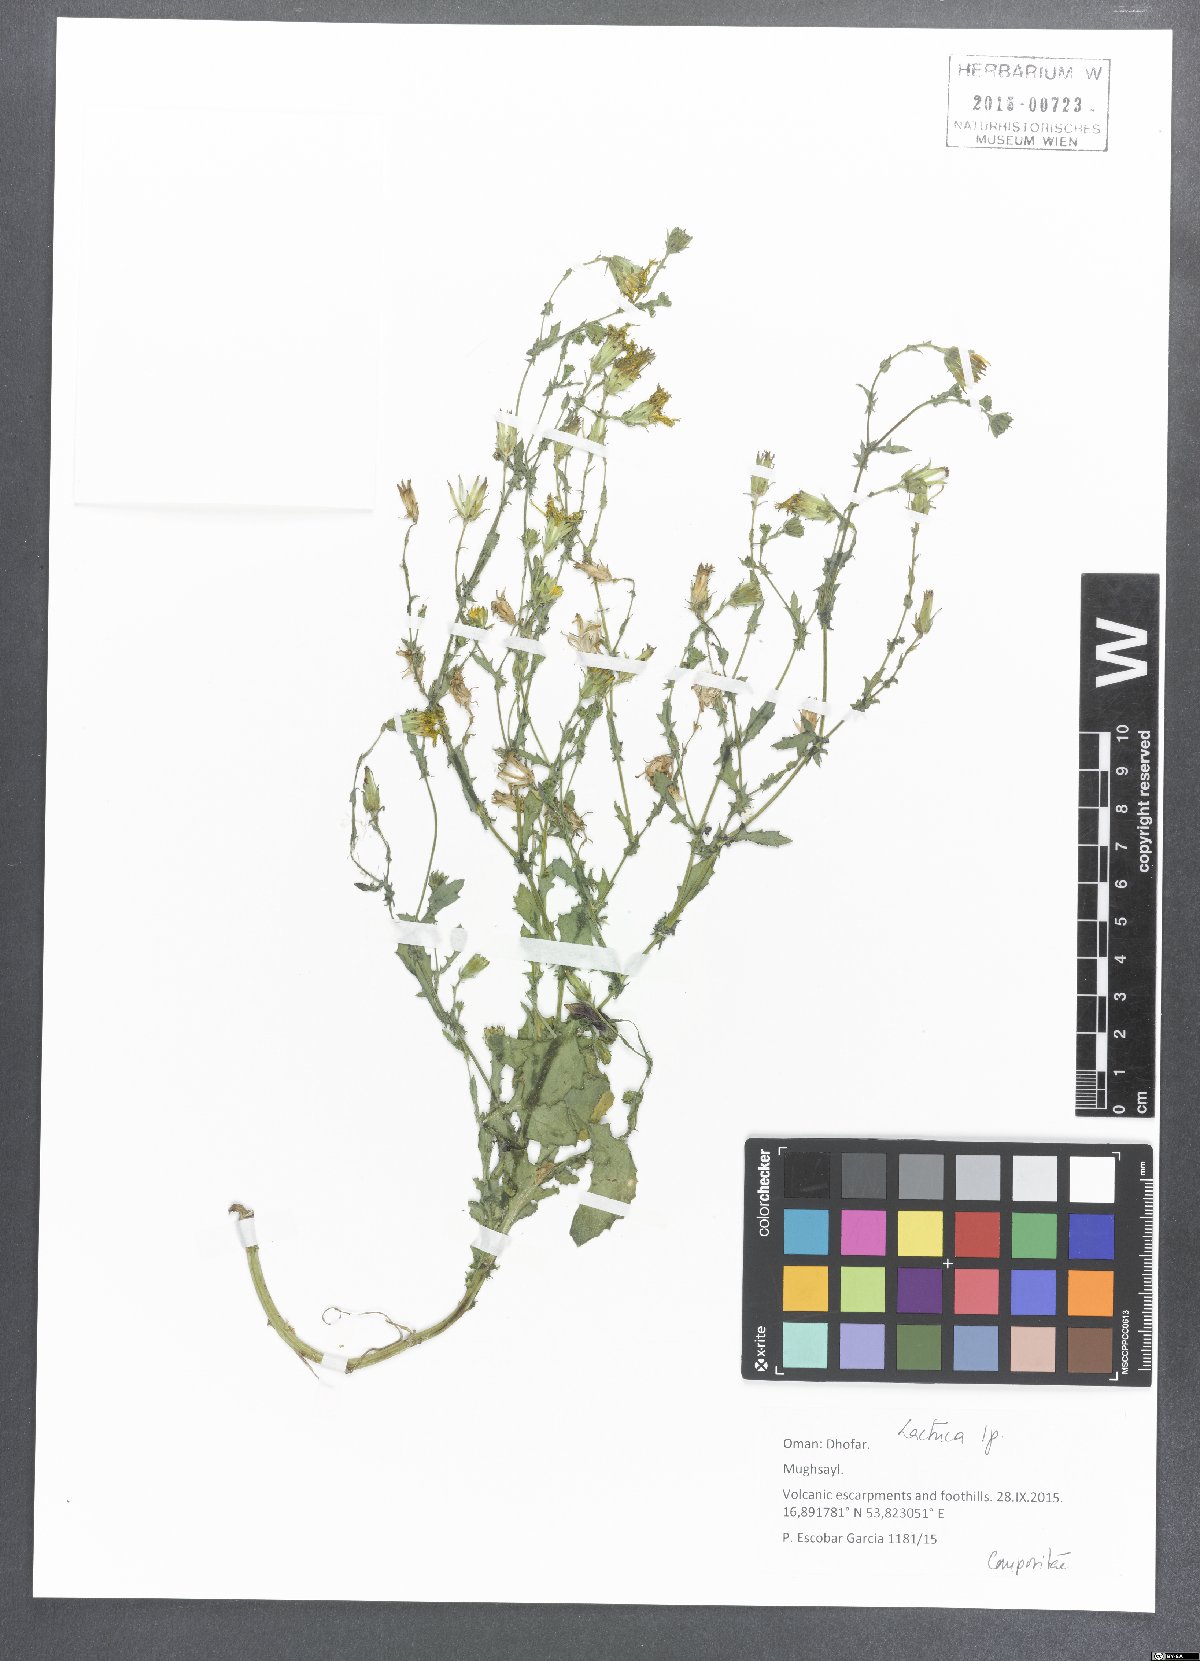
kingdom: Plantae
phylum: Tracheophyta
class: Magnoliopsida
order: Asterales
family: Asteraceae
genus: Lactuca
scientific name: Lactuca
